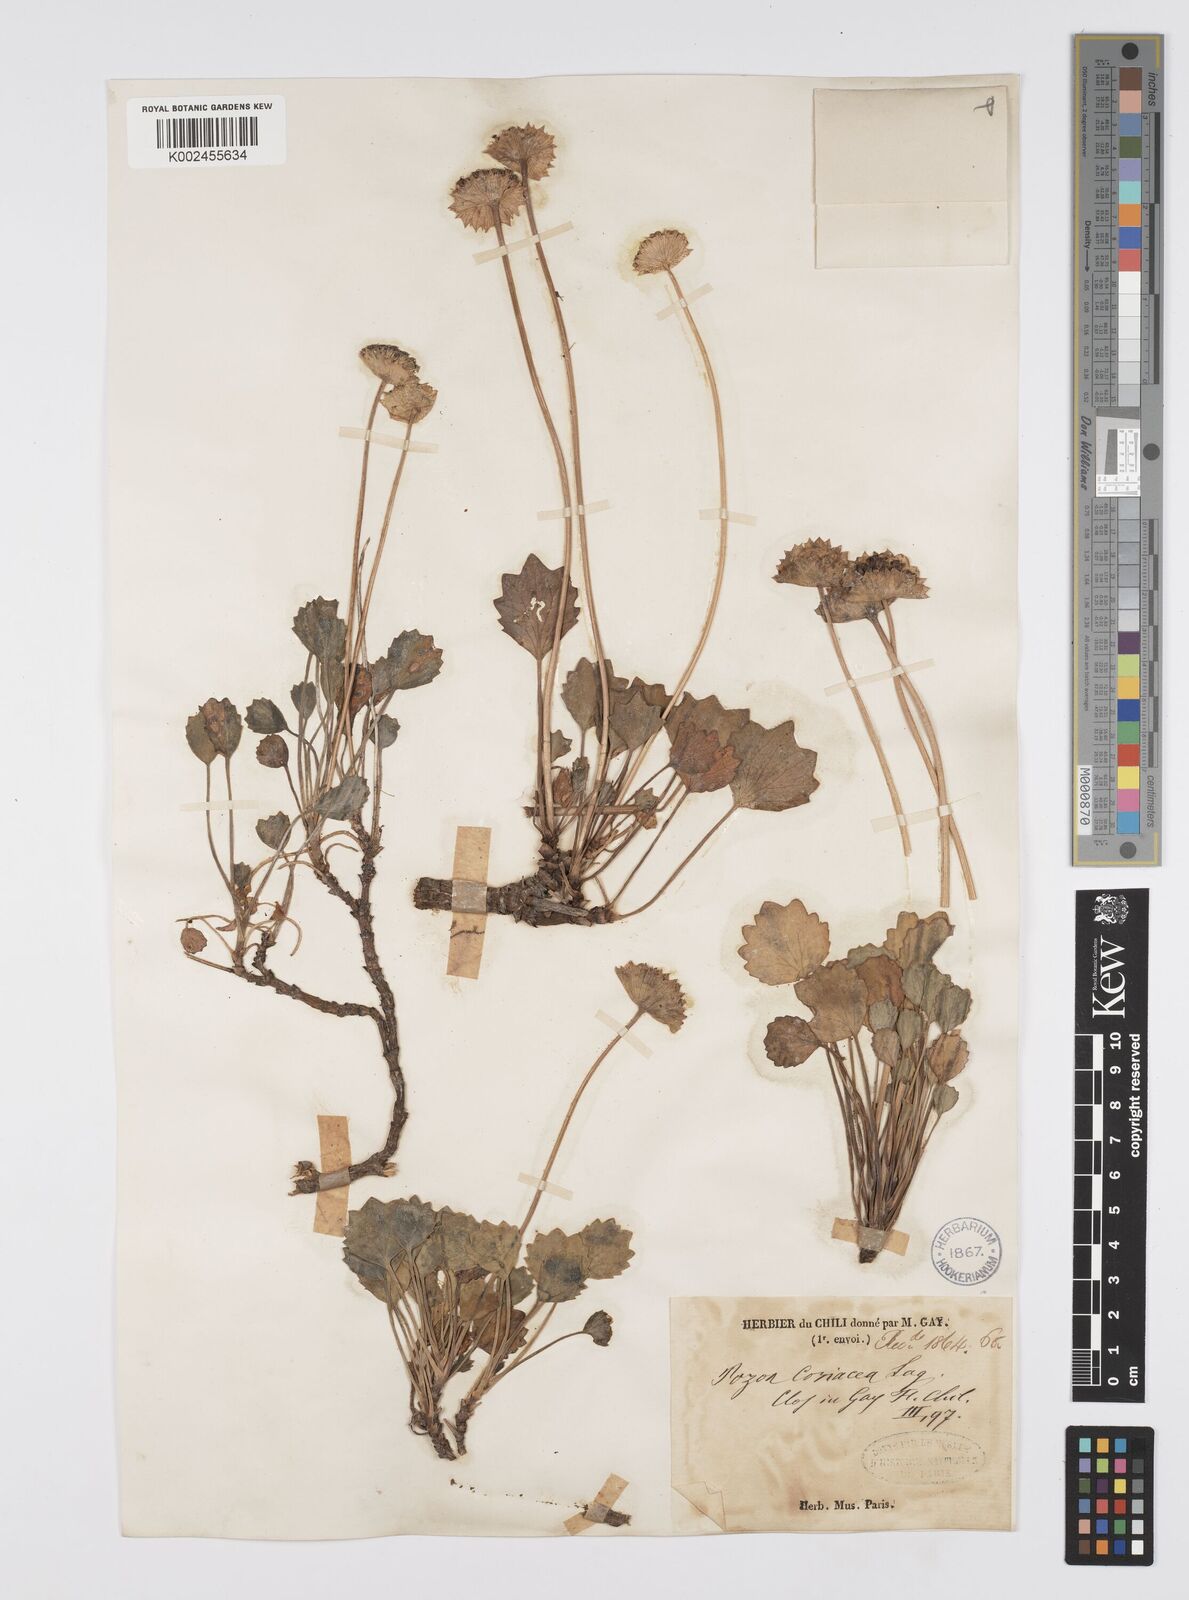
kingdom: Plantae
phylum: Tracheophyta
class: Magnoliopsida
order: Apiales
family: Apiaceae
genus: Pozoa
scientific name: Pozoa coriacea
